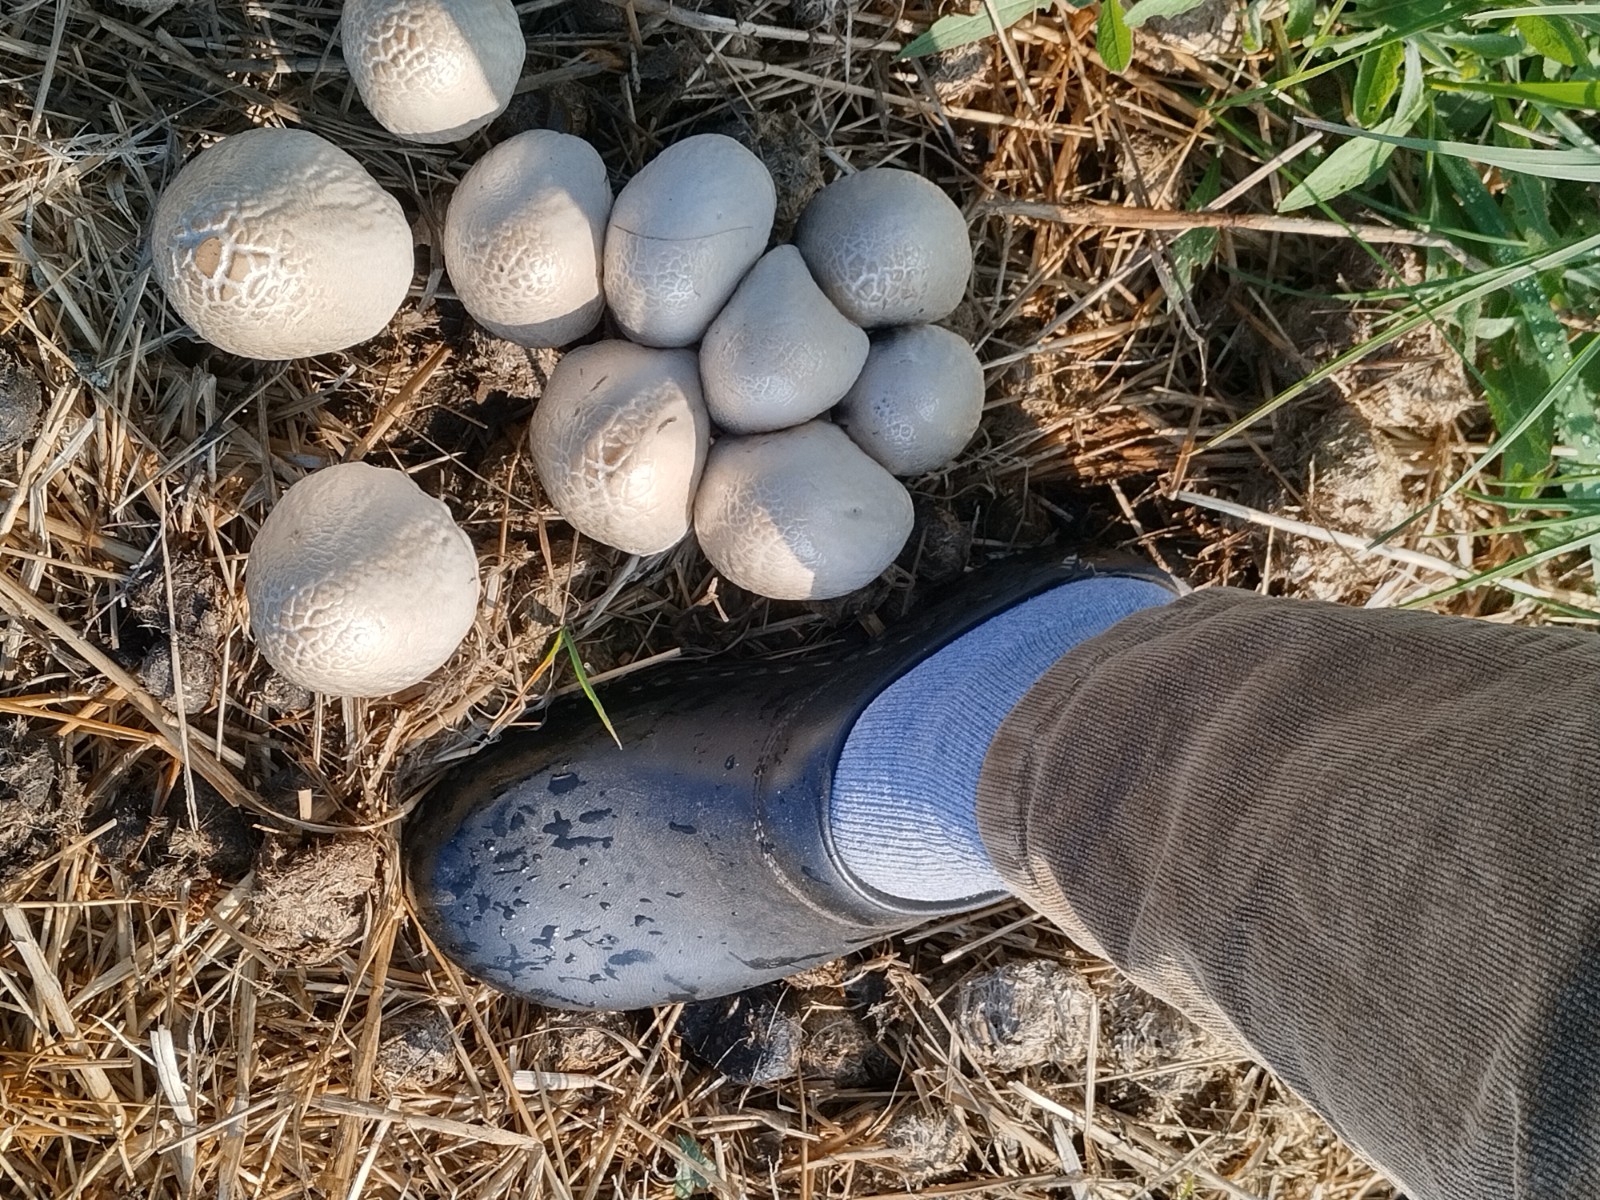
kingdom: Fungi
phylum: Basidiomycota
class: Agaricomycetes
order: Agaricales
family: Bolbitiaceae
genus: Panaeolus
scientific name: Panaeolus semiovatus
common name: ring-glanshat
